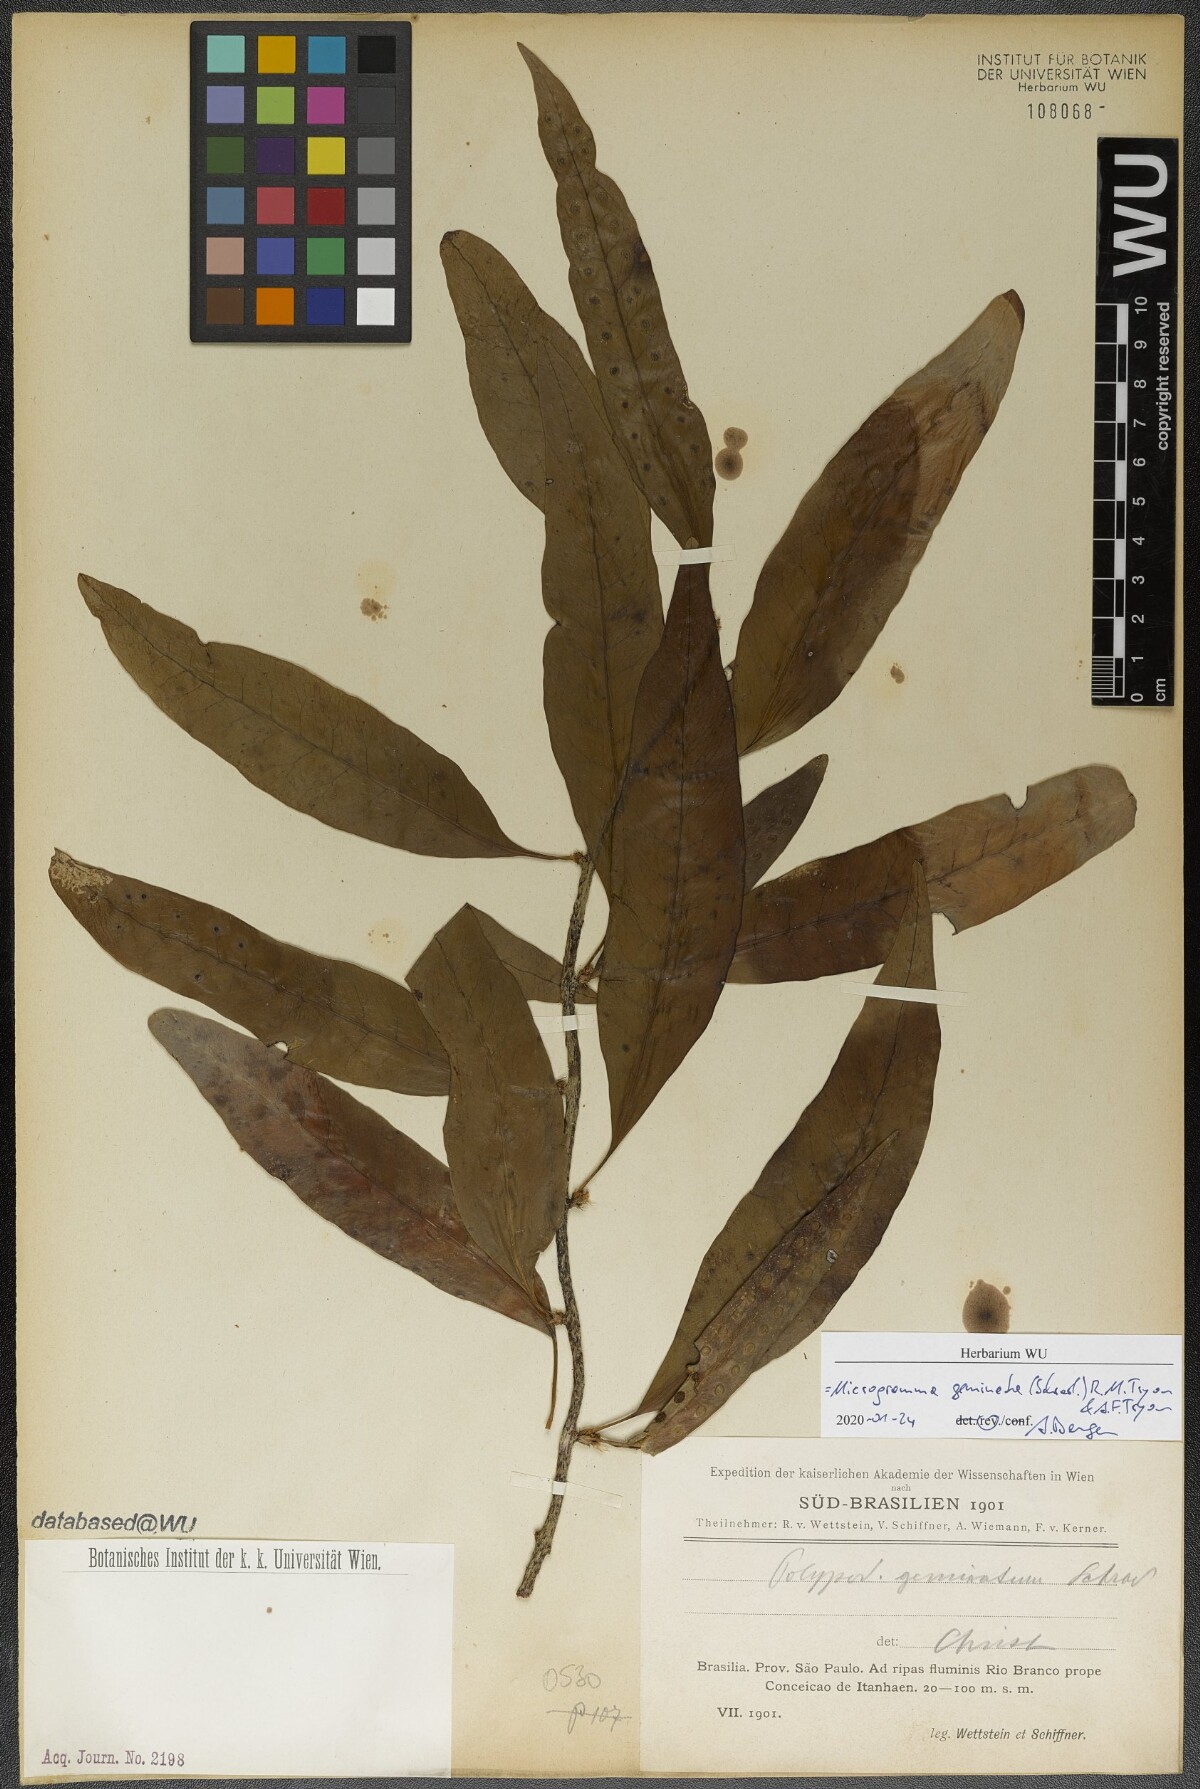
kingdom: Plantae
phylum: Tracheophyta
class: Polypodiopsida
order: Polypodiales
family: Polypodiaceae
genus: Microgramma
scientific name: Microgramma geminata
